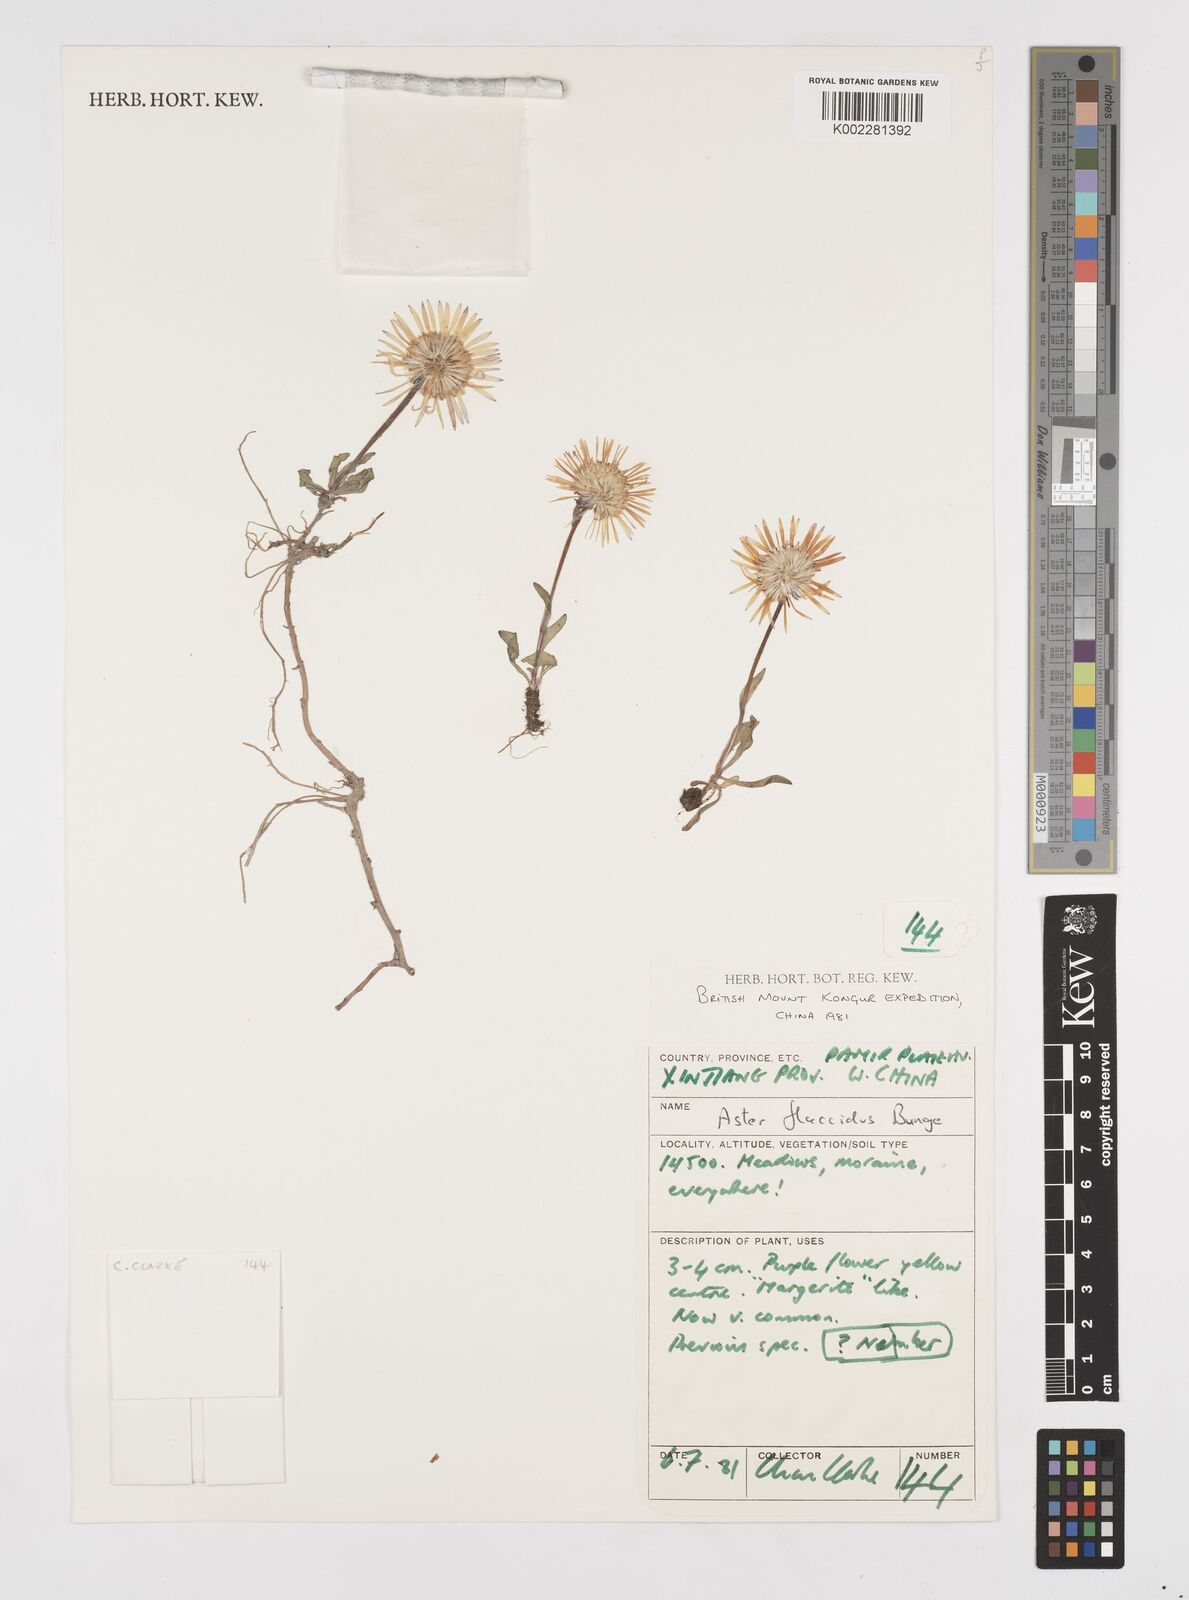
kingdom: Plantae
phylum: Tracheophyta
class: Magnoliopsida
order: Asterales
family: Asteraceae
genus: Tibetiodes
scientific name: Tibetiodes flaccida
